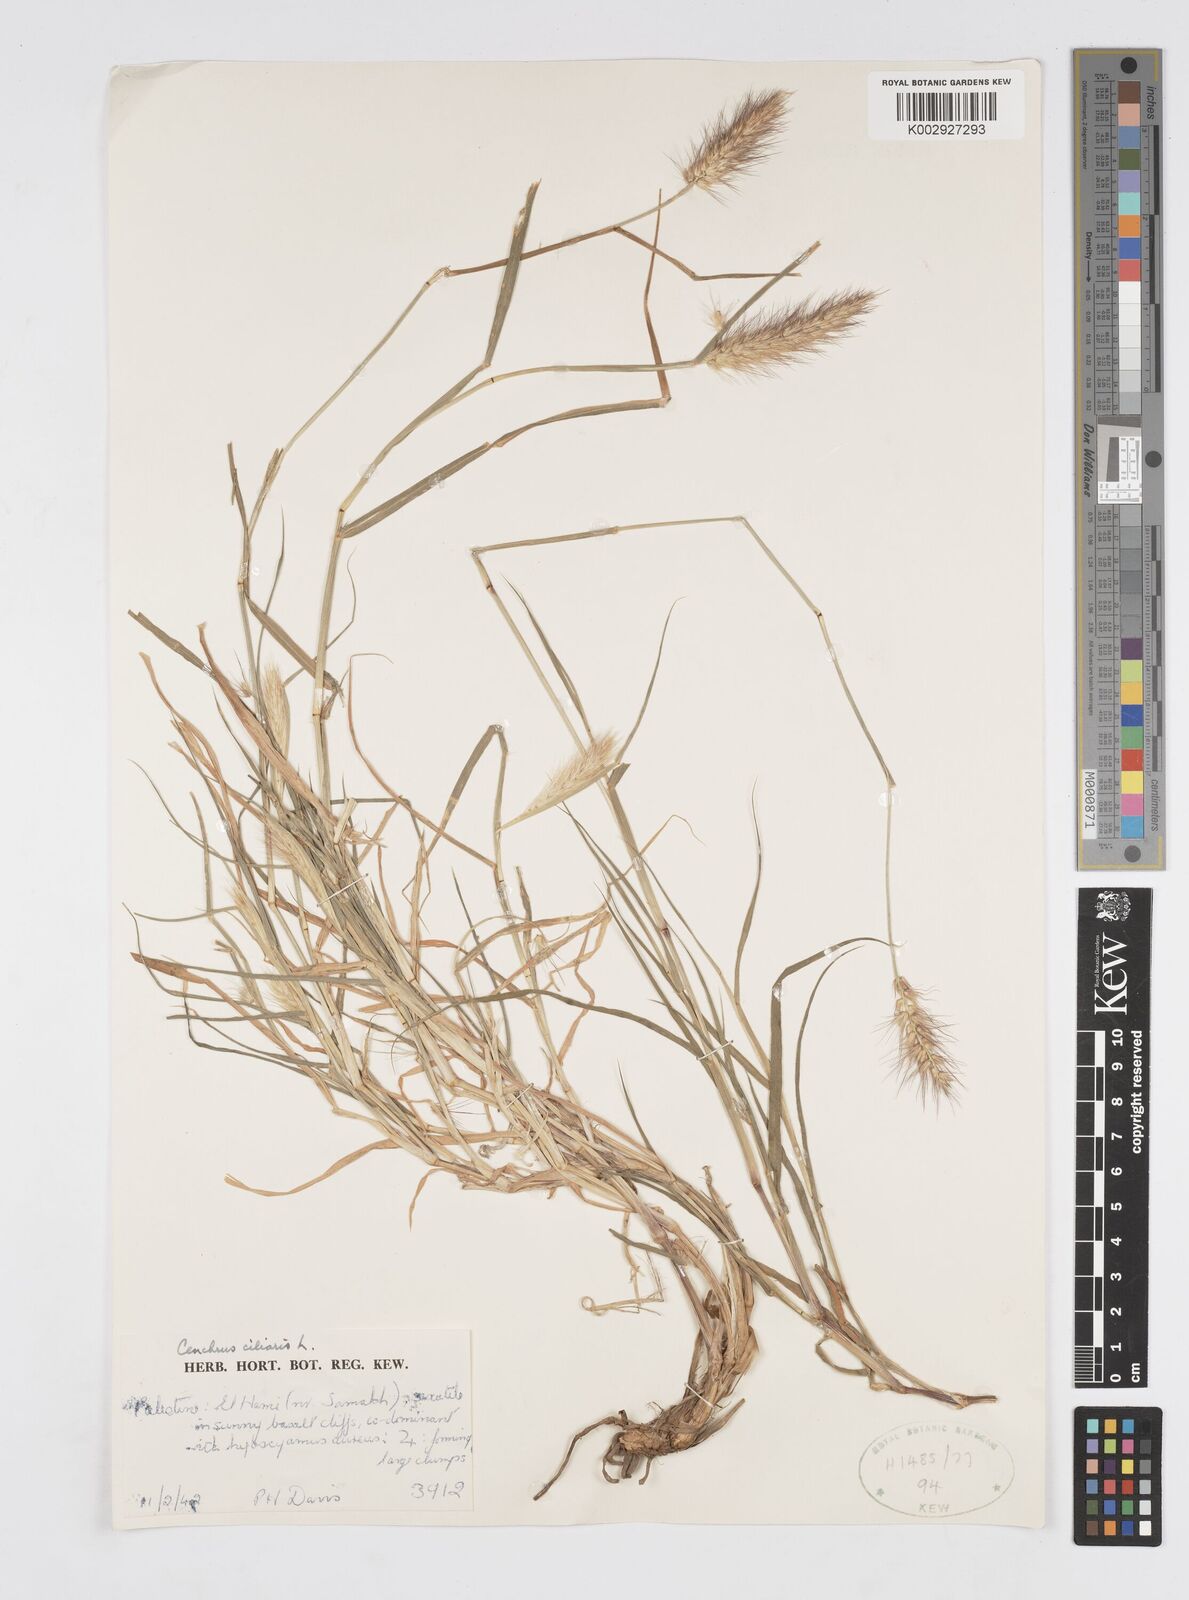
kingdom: Plantae
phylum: Tracheophyta
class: Liliopsida
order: Poales
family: Poaceae
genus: Cenchrus
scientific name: Cenchrus ciliaris
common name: Buffelgrass
